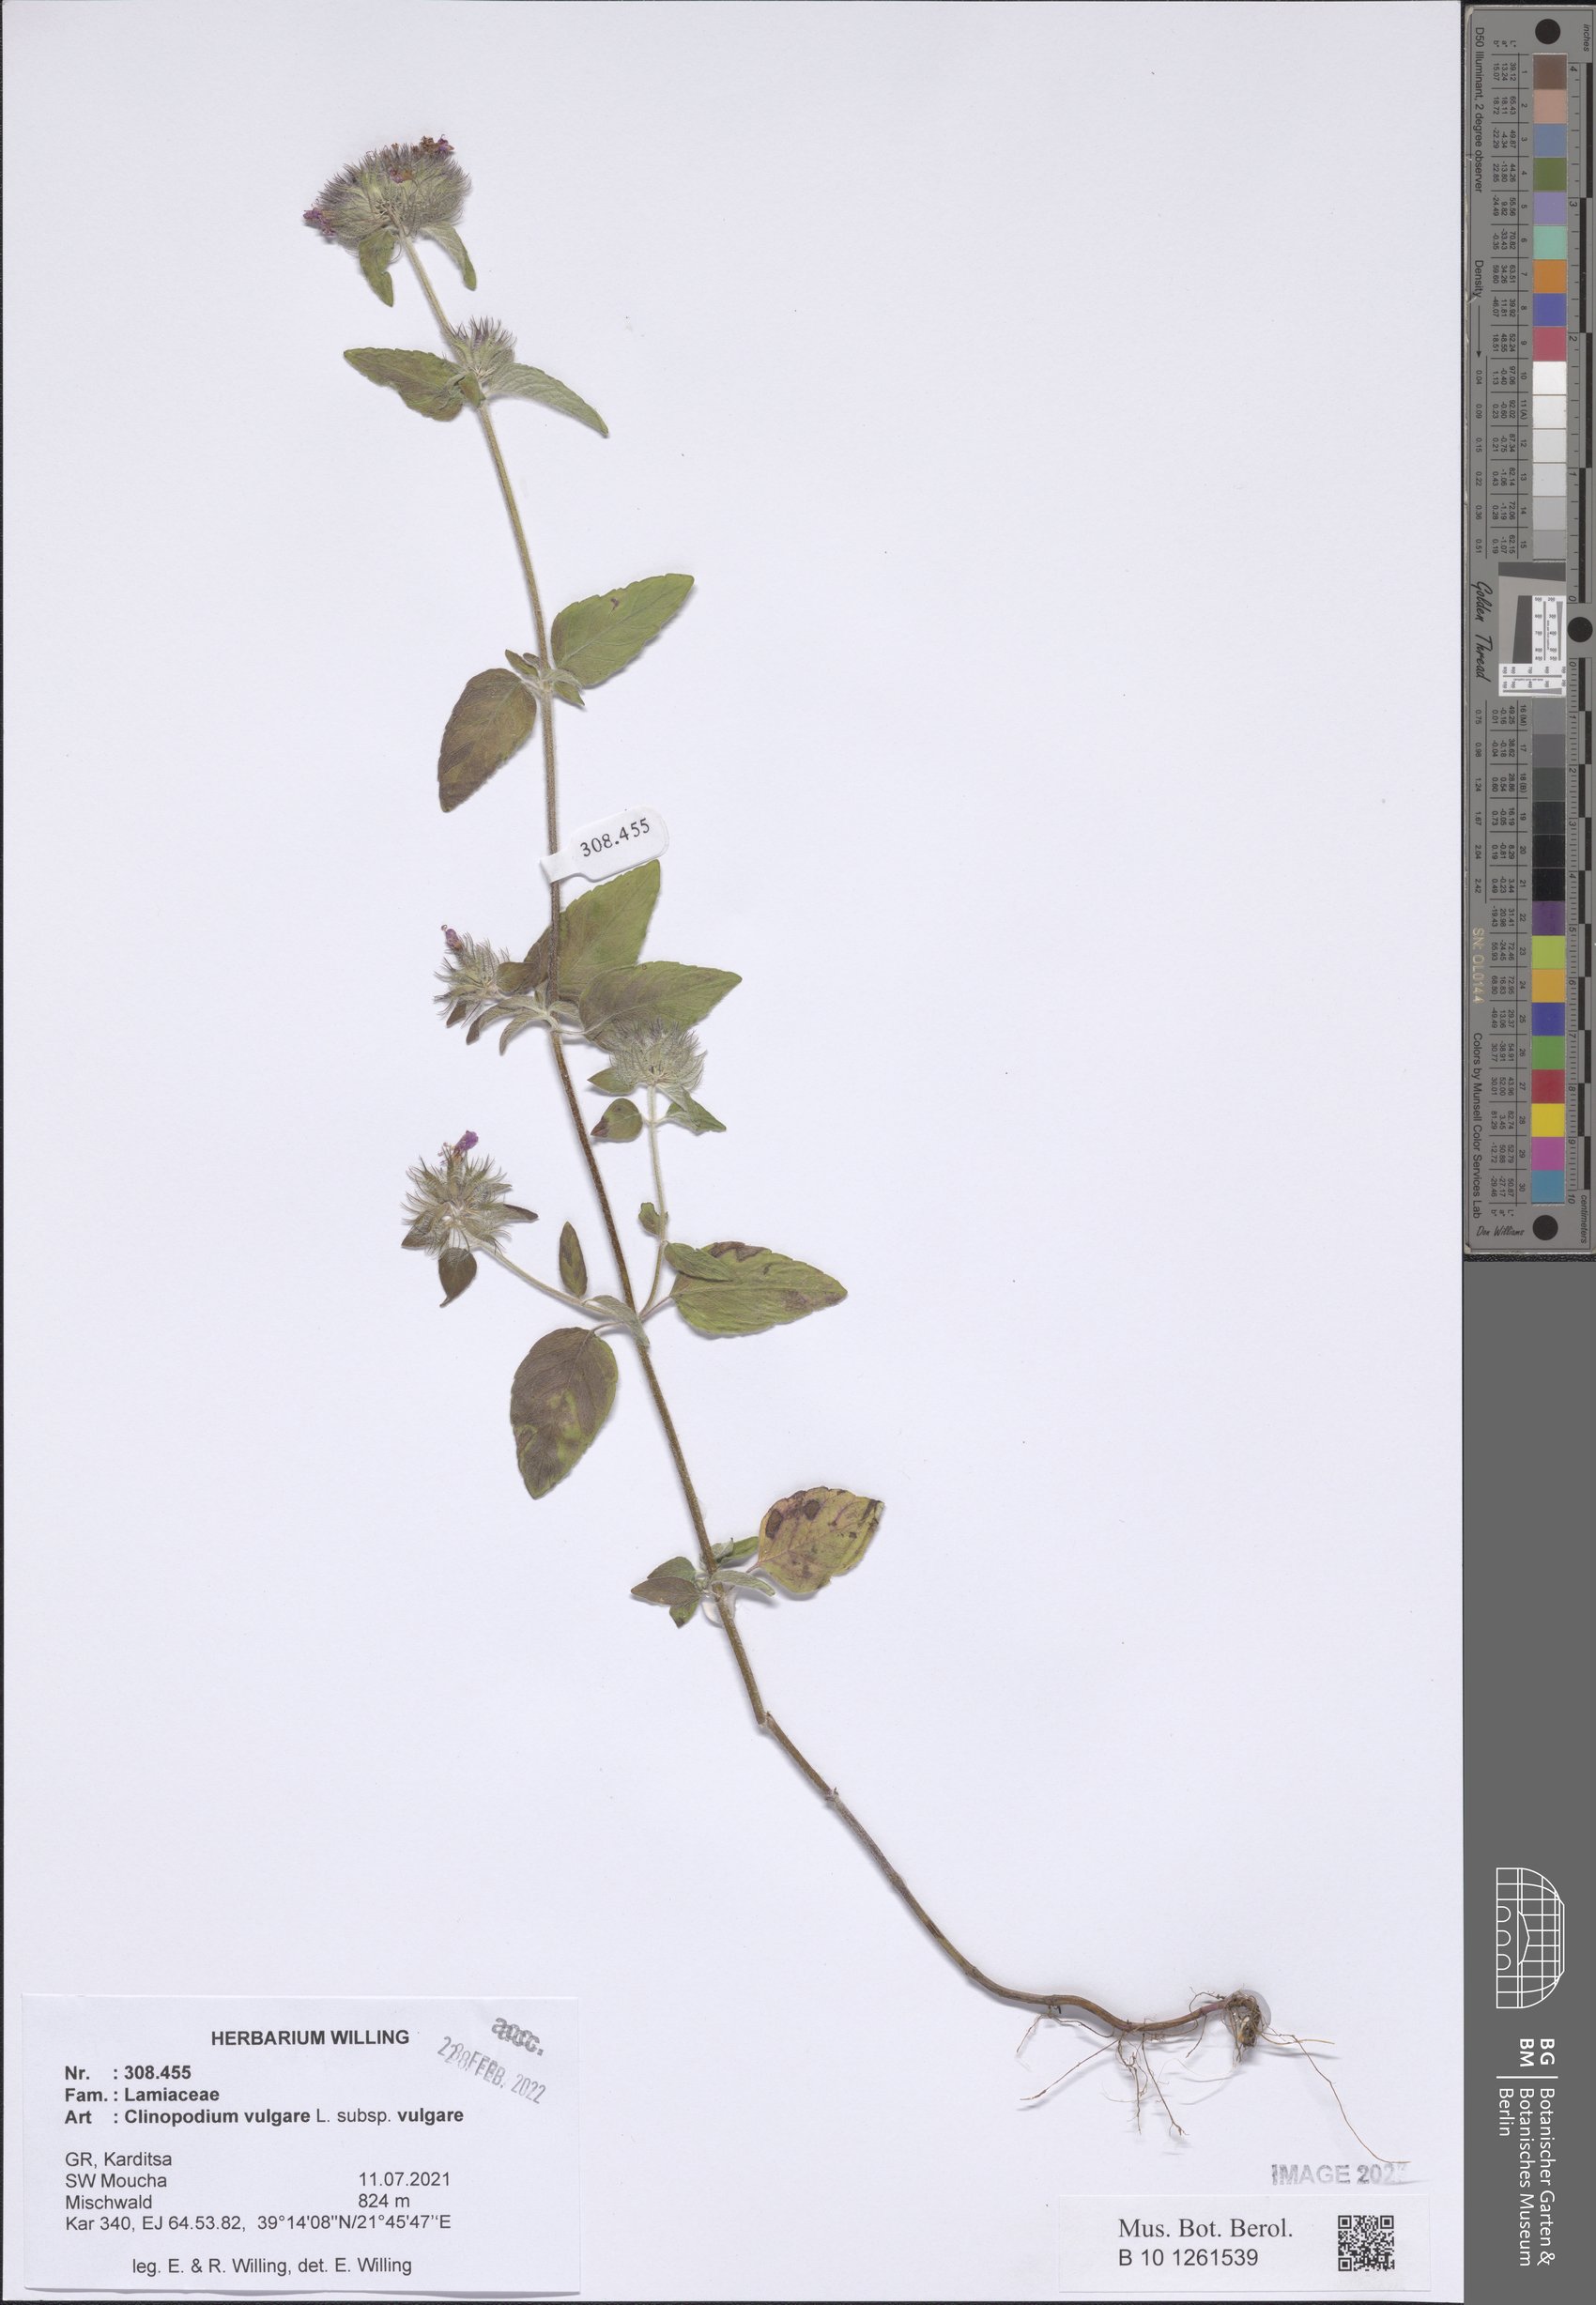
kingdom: Plantae
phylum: Tracheophyta
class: Magnoliopsida
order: Lamiales
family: Lamiaceae
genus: Clinopodium
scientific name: Clinopodium vulgare
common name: Wild basil
